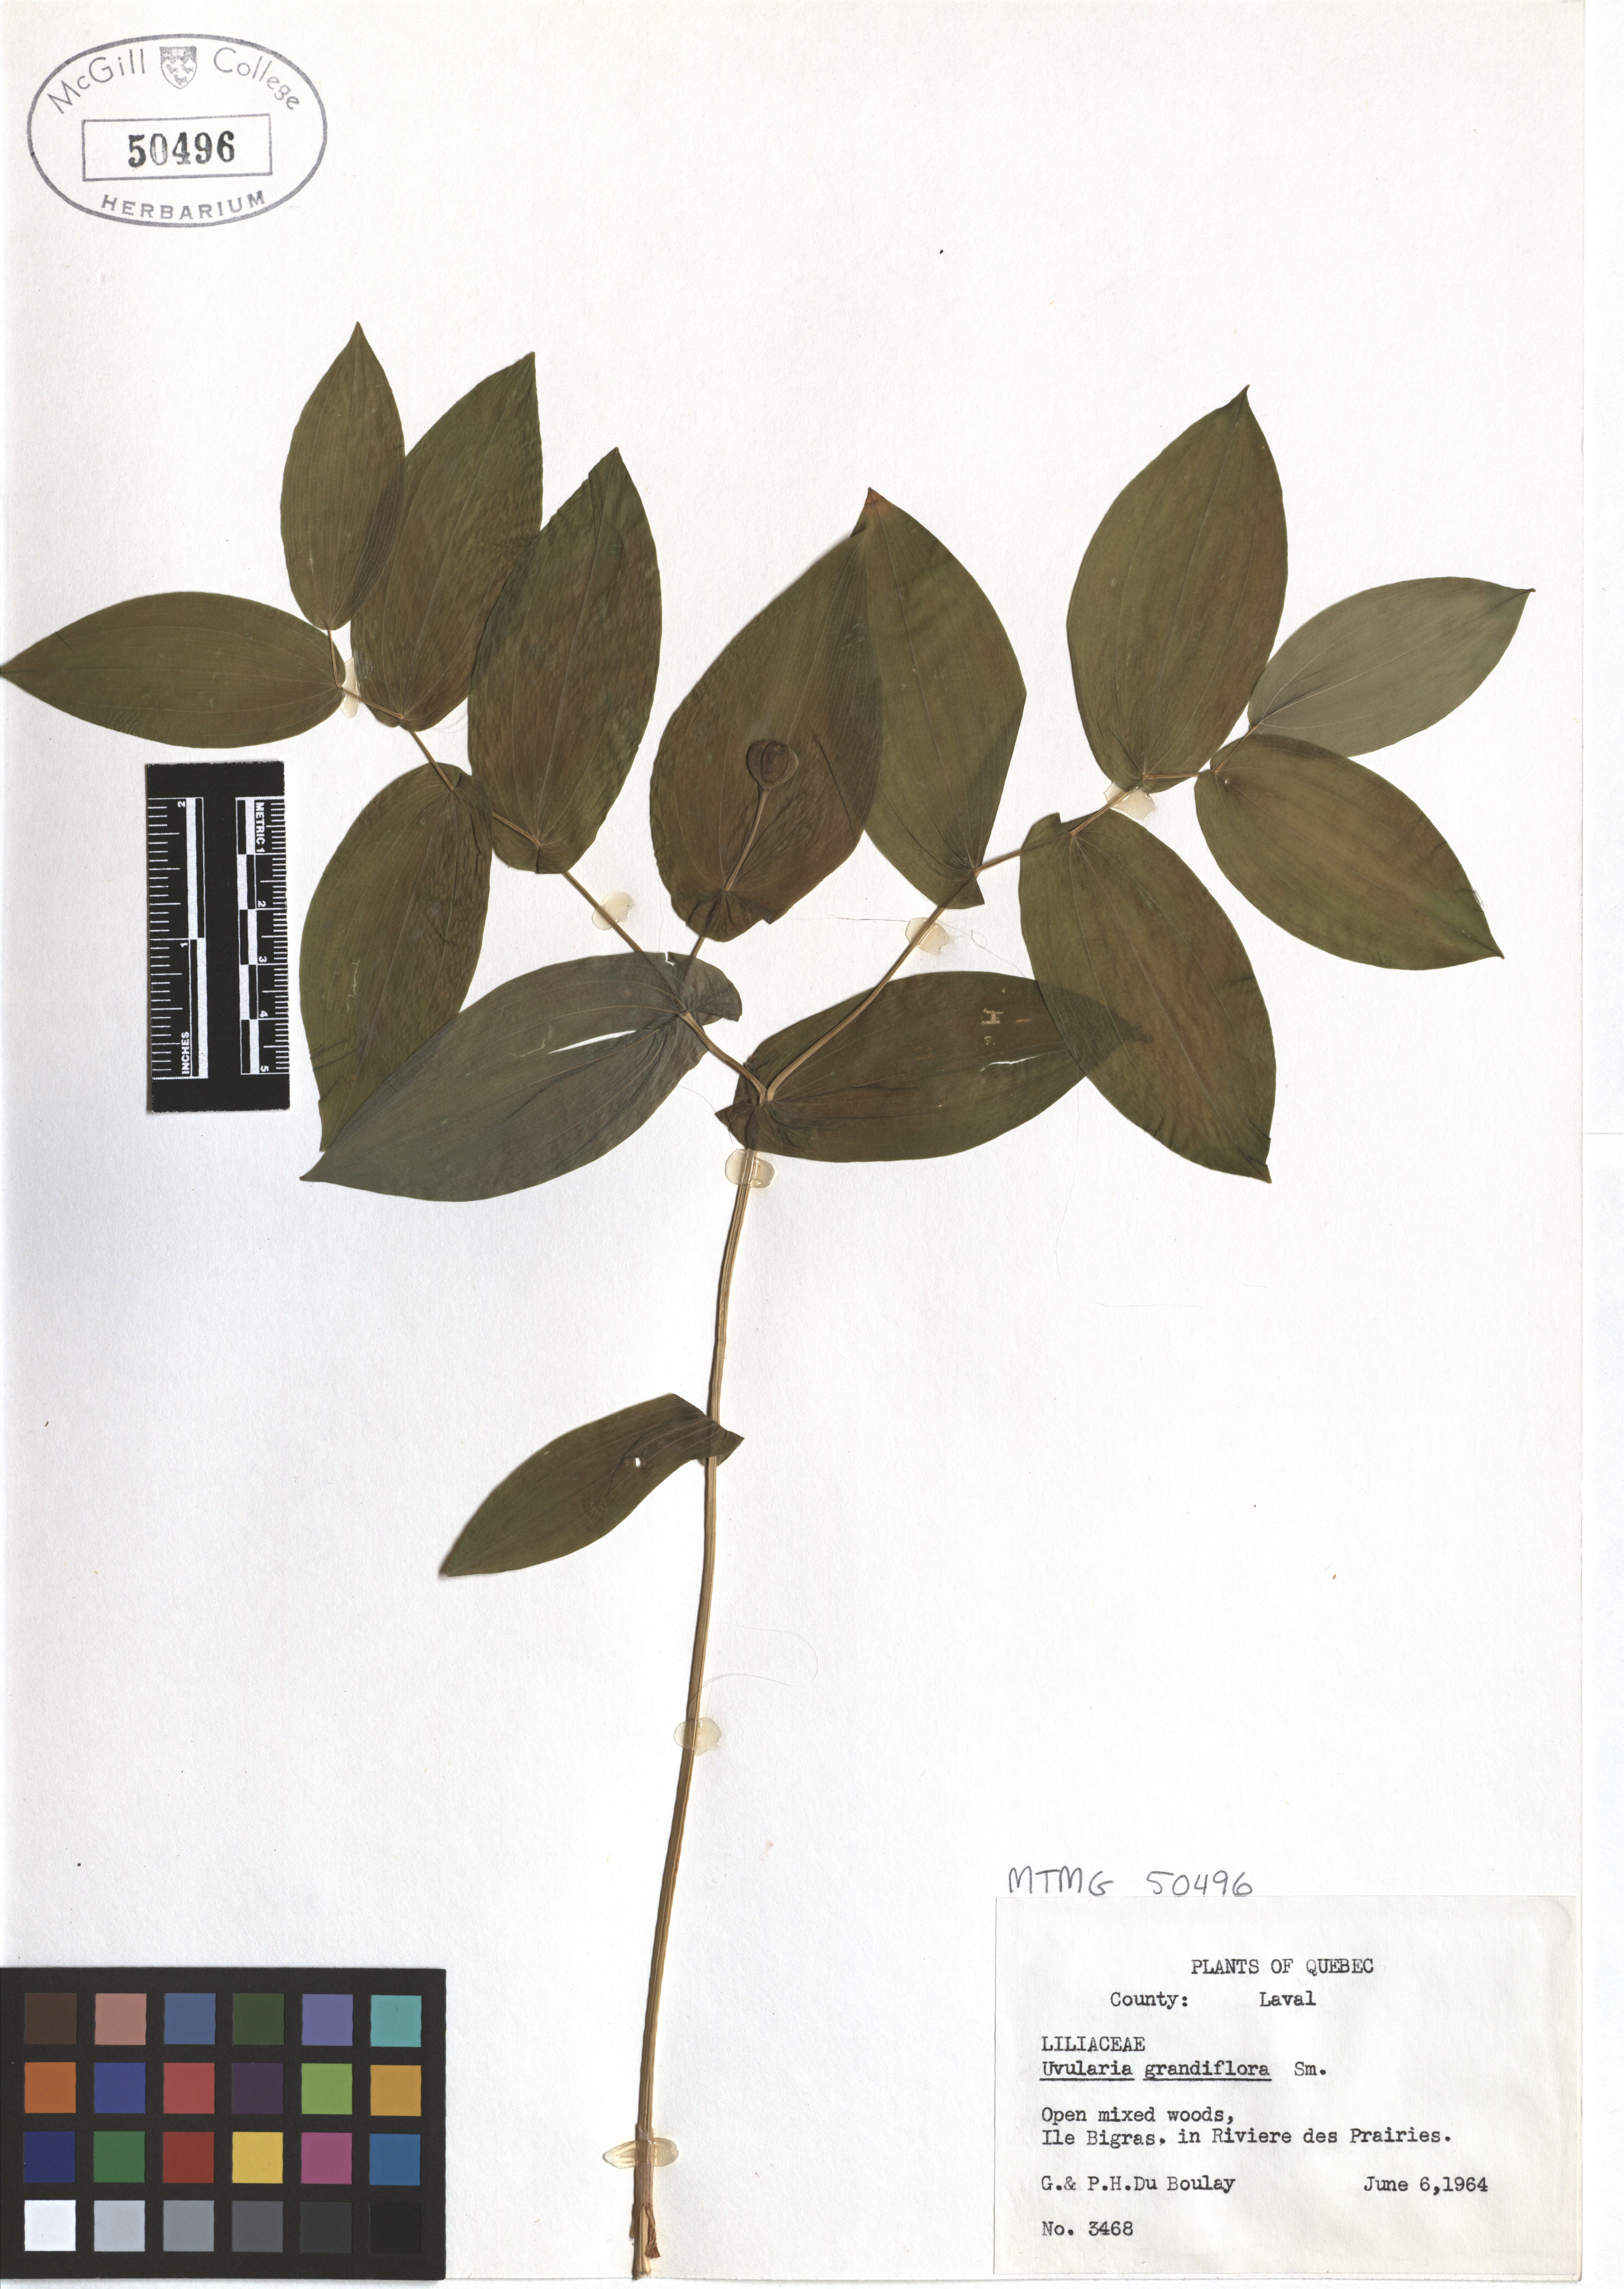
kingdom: Plantae
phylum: Tracheophyta
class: Liliopsida
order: Liliales
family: Colchicaceae
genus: Uvularia
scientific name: Uvularia grandiflora
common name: Bellwort
